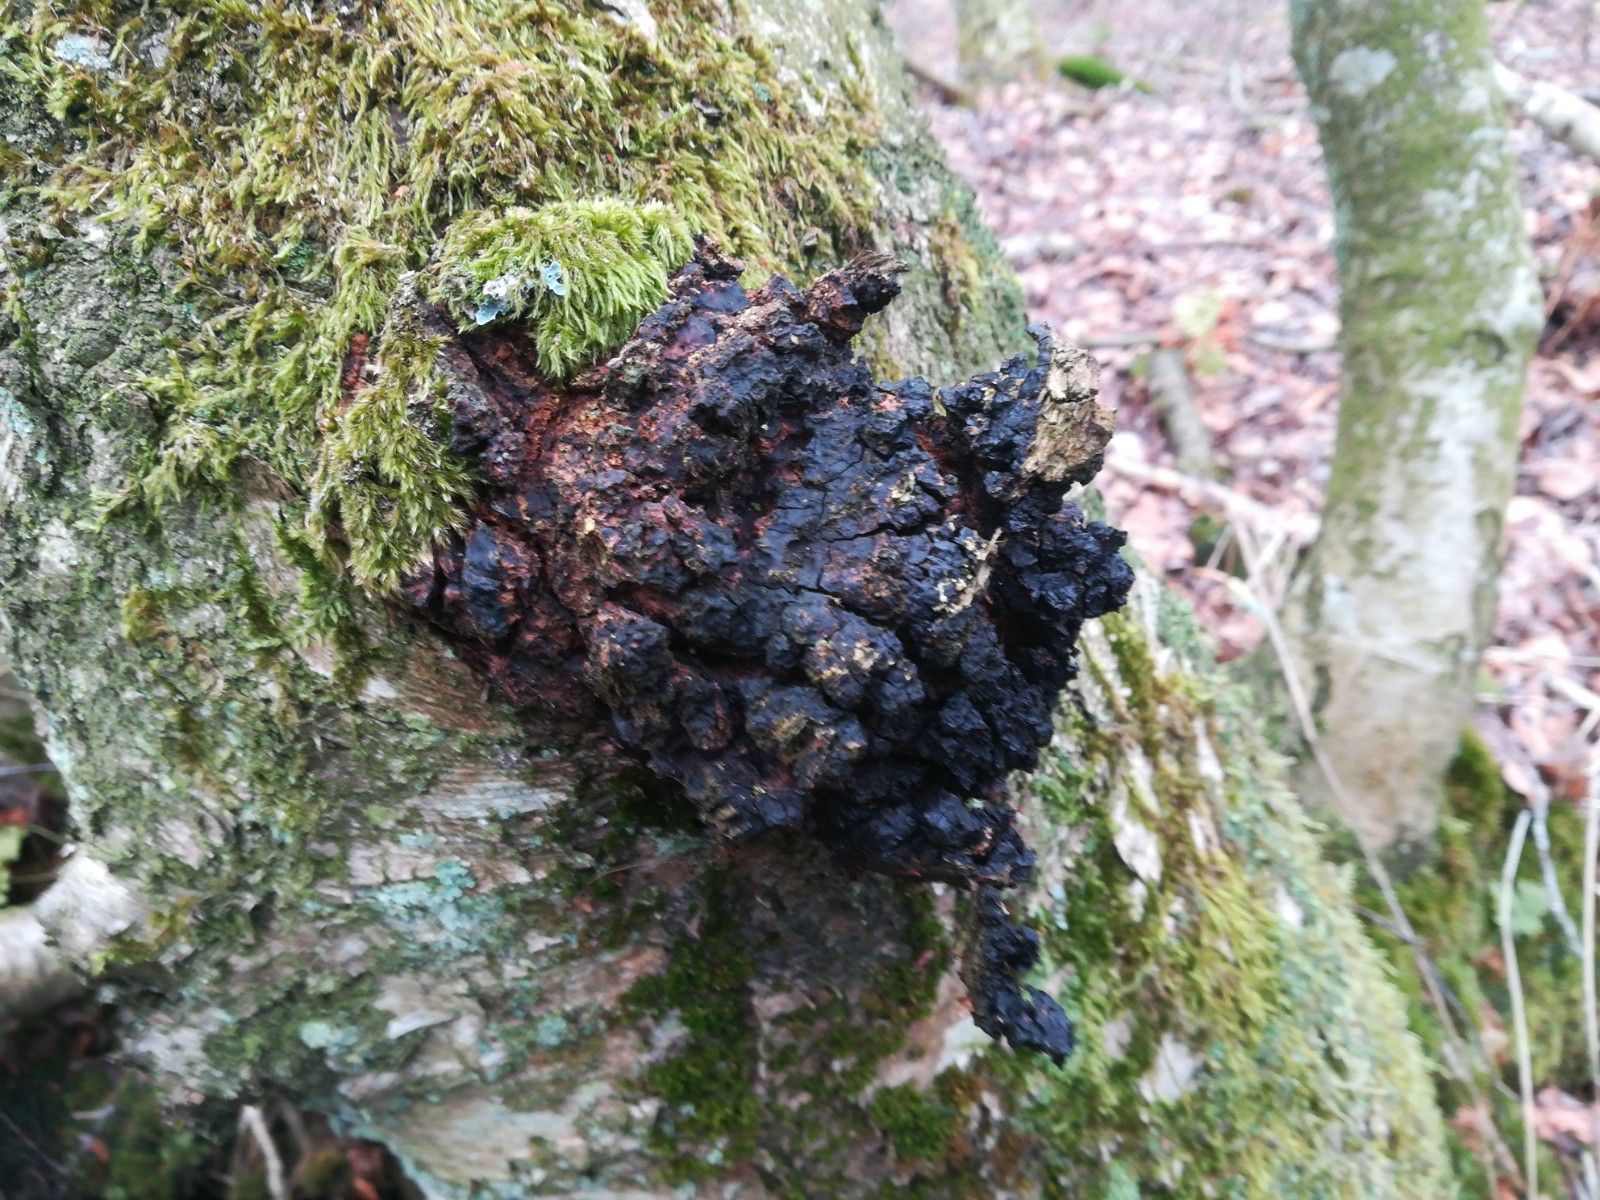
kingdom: Fungi
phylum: Basidiomycota
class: Agaricomycetes
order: Hymenochaetales
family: Hymenochaetaceae
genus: Inonotus
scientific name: Inonotus obliquus
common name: birke-spejlporesvamp
